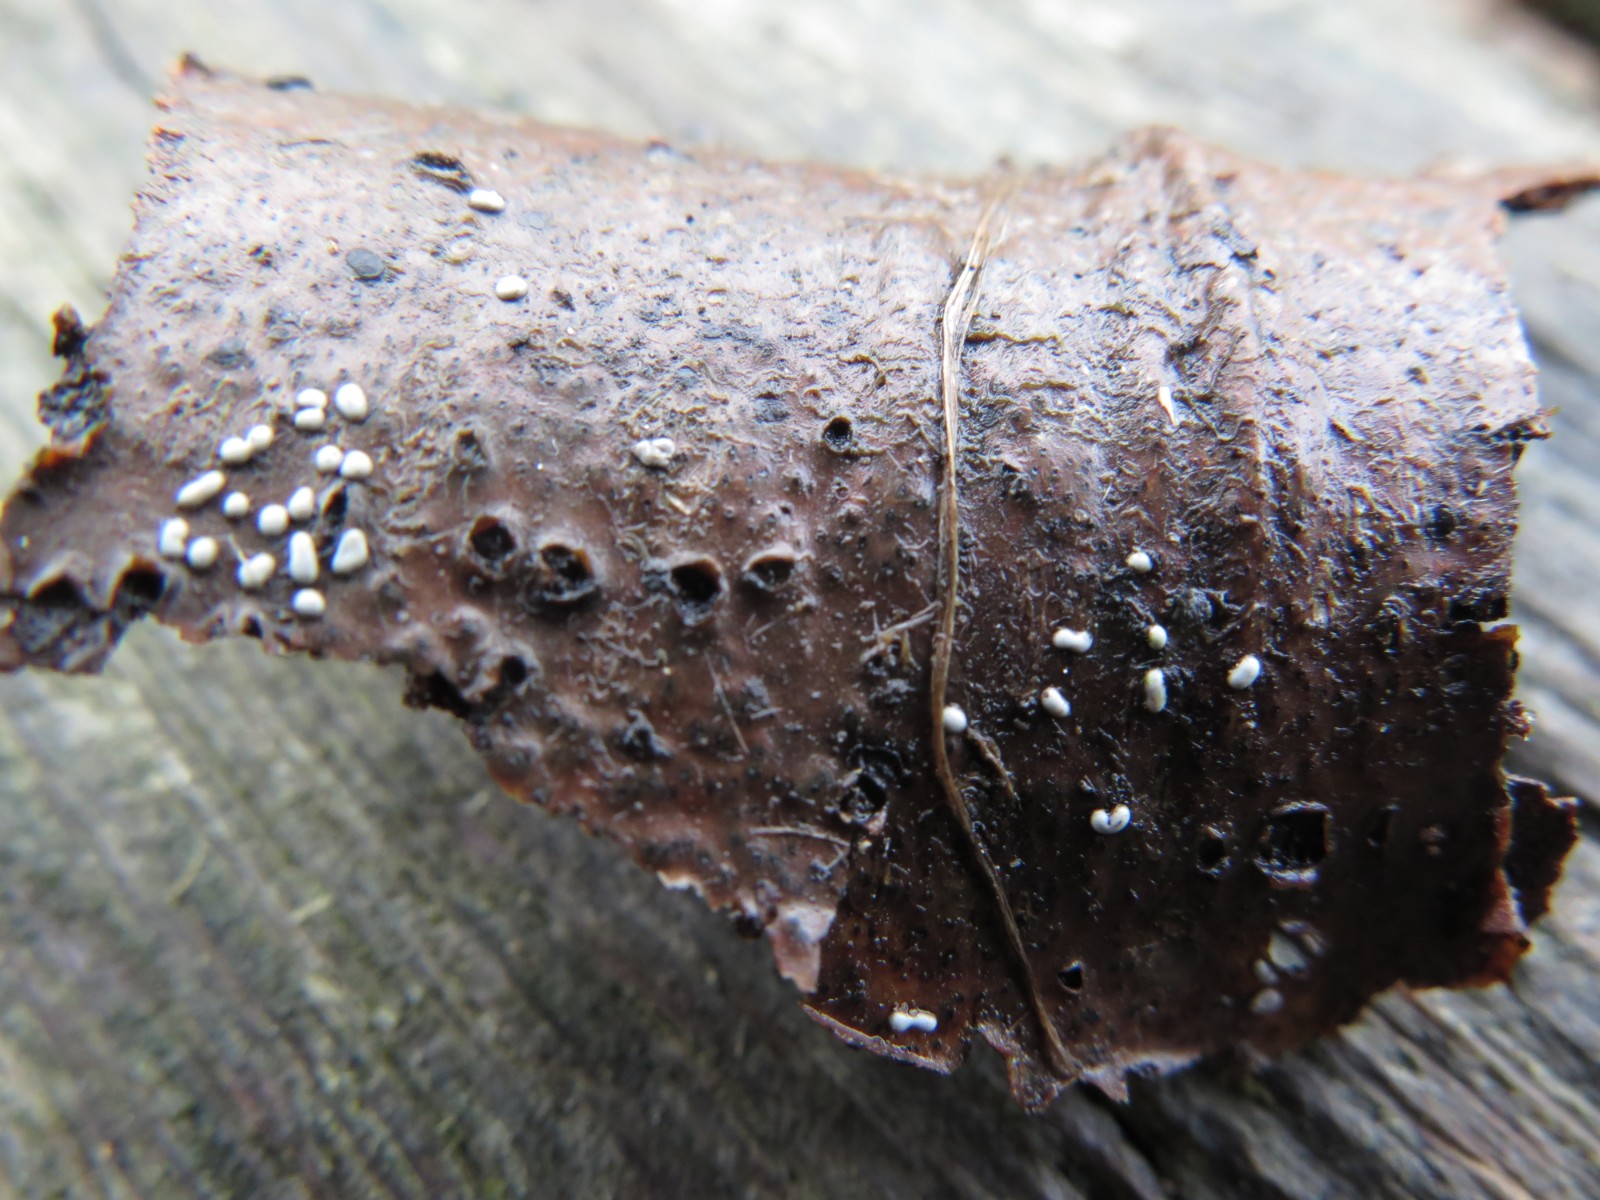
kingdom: Protozoa
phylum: Mycetozoa
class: Myxomycetes
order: Physarales
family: Didymiaceae
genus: Didymium
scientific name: Didymium difforme
